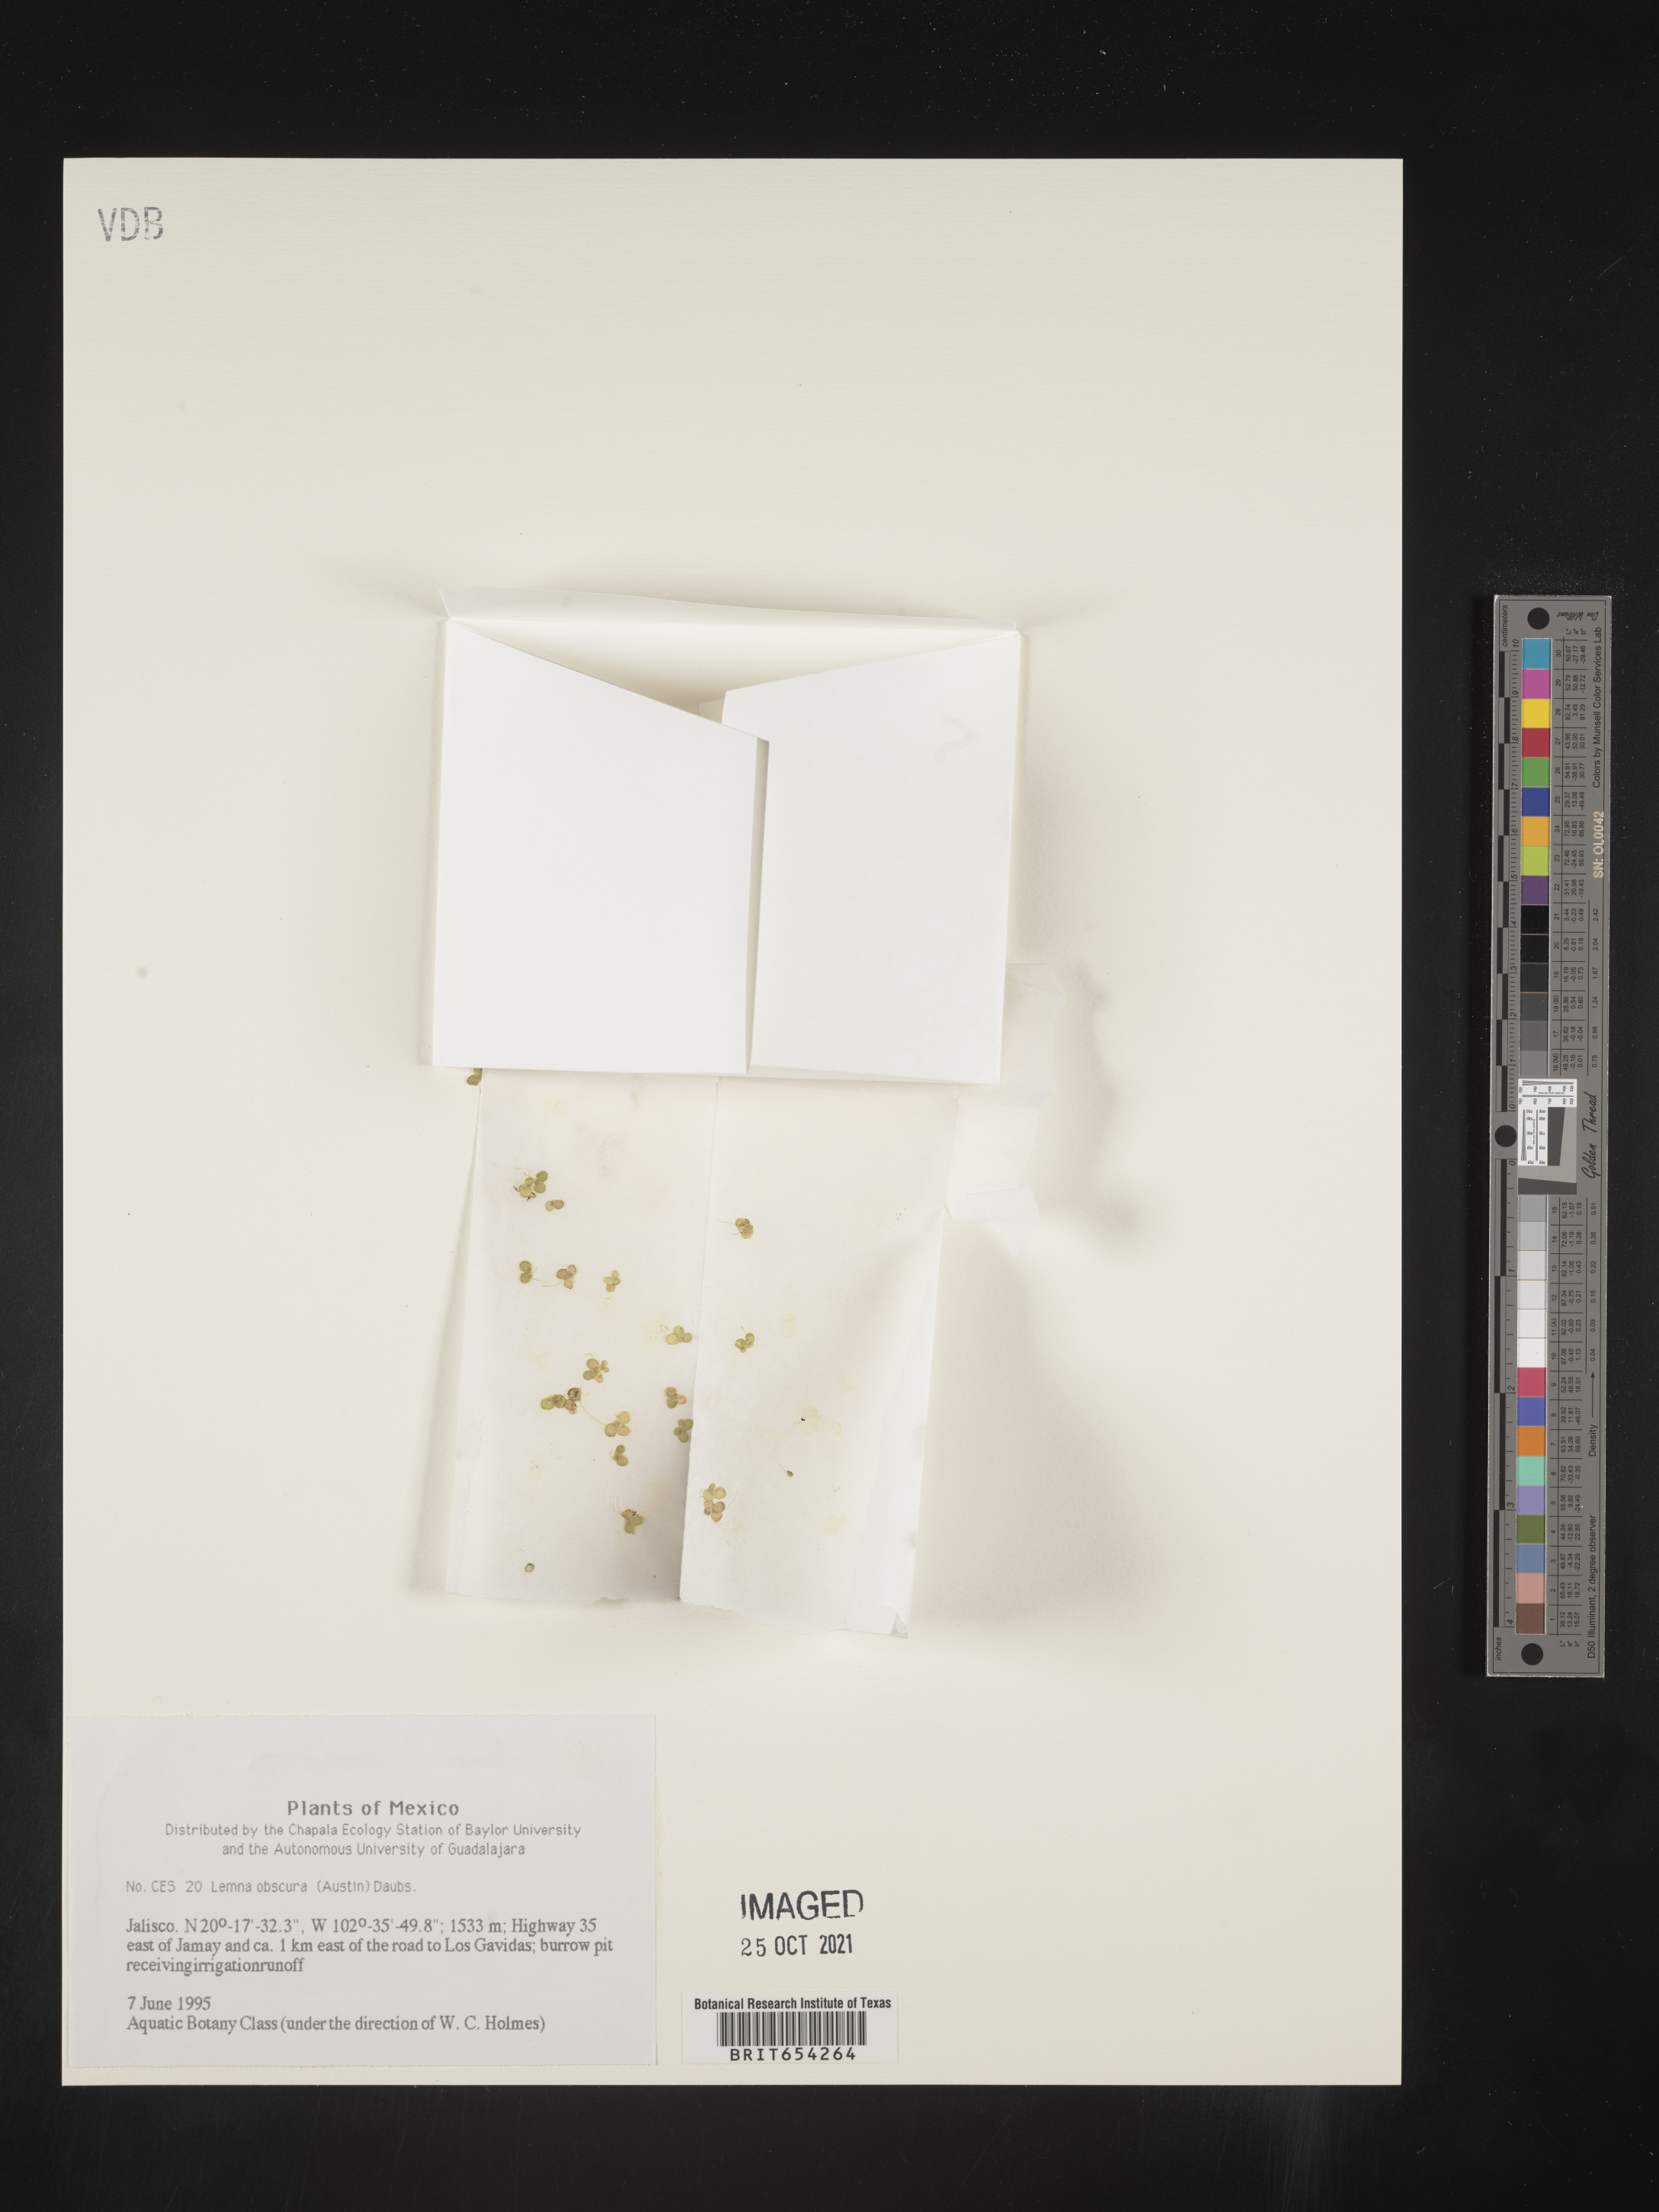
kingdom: Plantae
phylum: Tracheophyta
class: Liliopsida
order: Alismatales
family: Araceae
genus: Lemna
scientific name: Lemna
